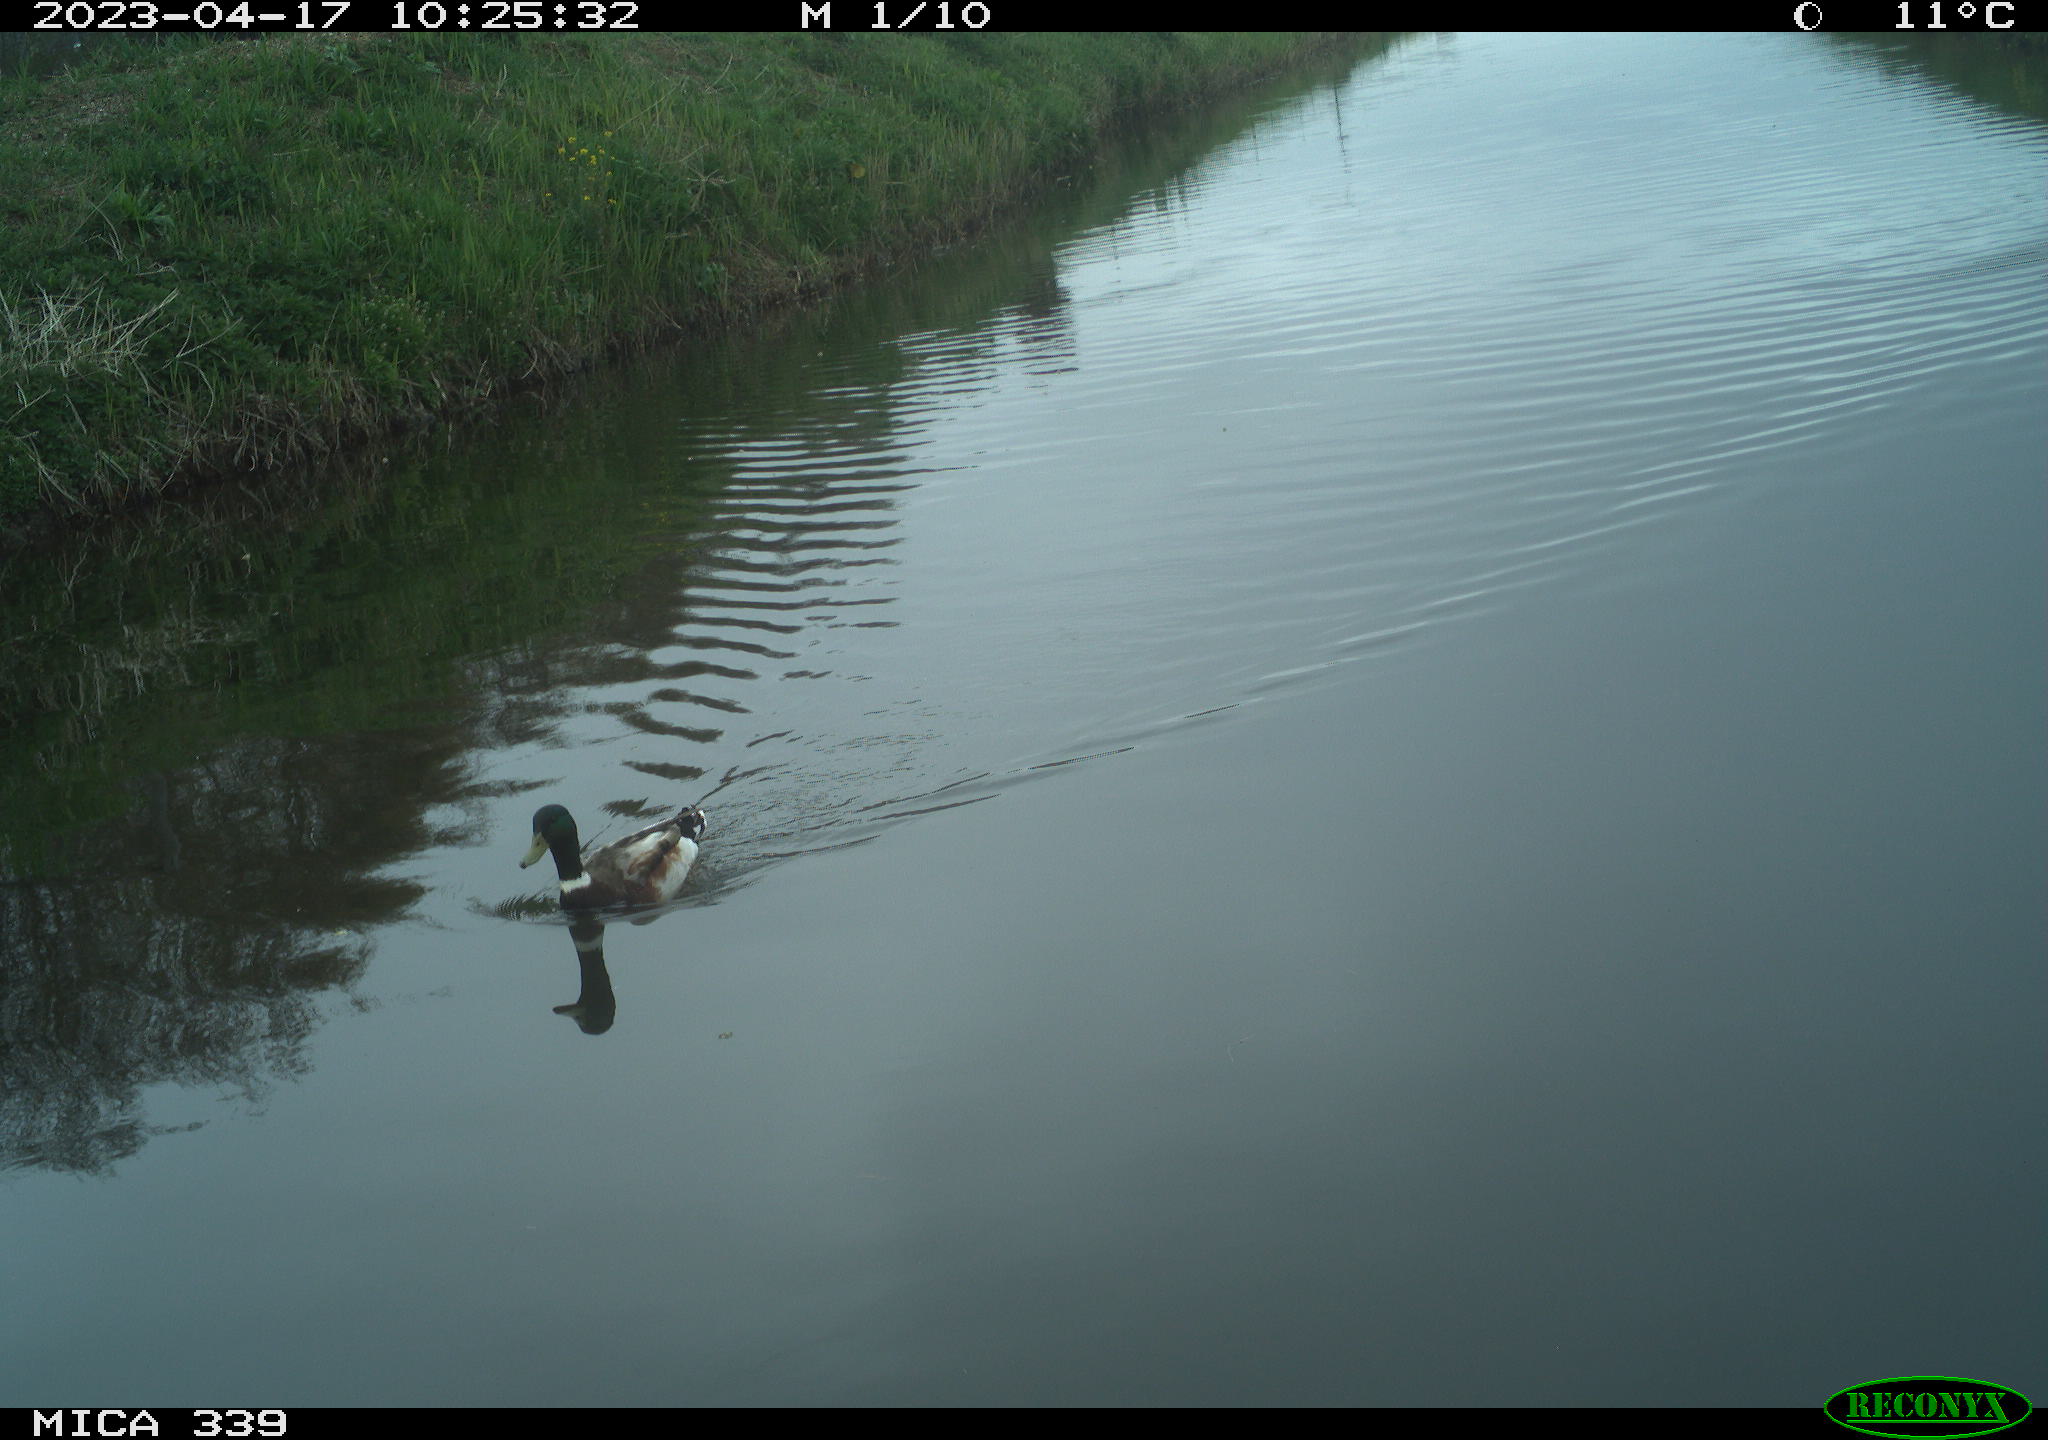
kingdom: Animalia
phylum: Chordata
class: Aves
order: Anseriformes
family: Anatidae
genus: Anas
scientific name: Anas
